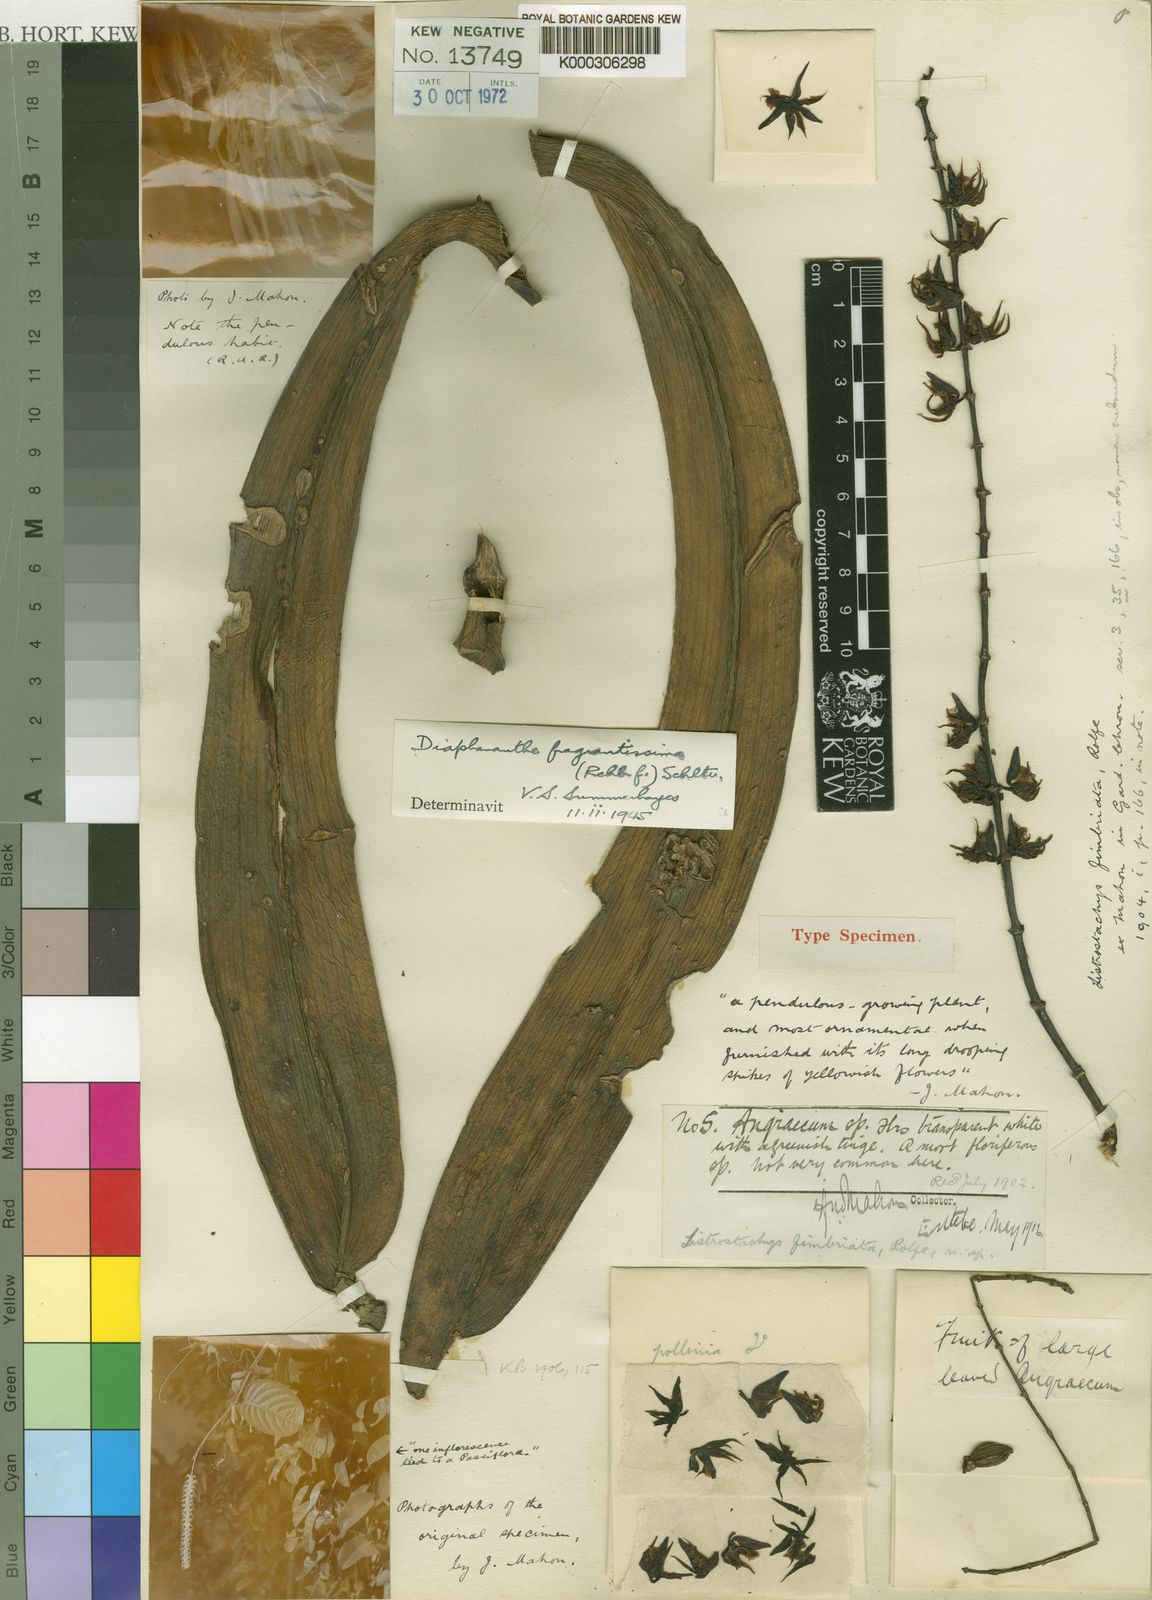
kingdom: Plantae
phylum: Tracheophyta
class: Liliopsida
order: Asparagales
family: Orchidaceae
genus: Diaphananthe
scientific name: Diaphananthe fragrantissima
